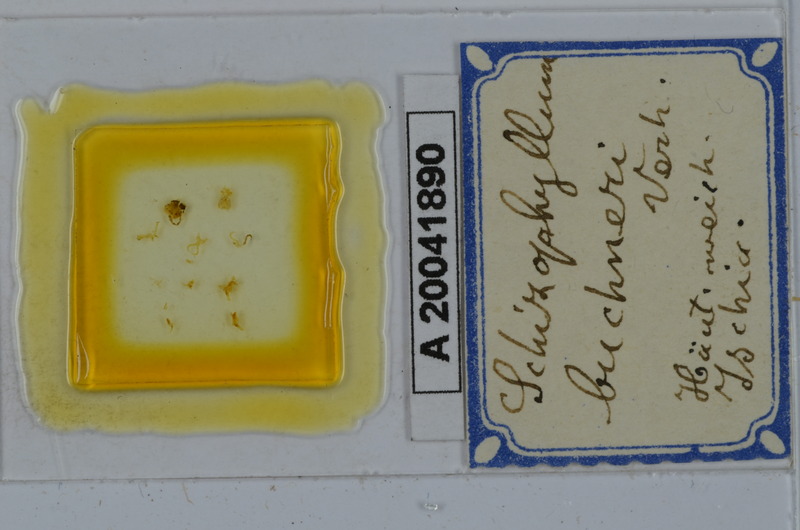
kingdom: Animalia
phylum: Arthropoda
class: Diplopoda
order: Julida
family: Julidae
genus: Schizophyllum
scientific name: Schizophyllum buchneri
